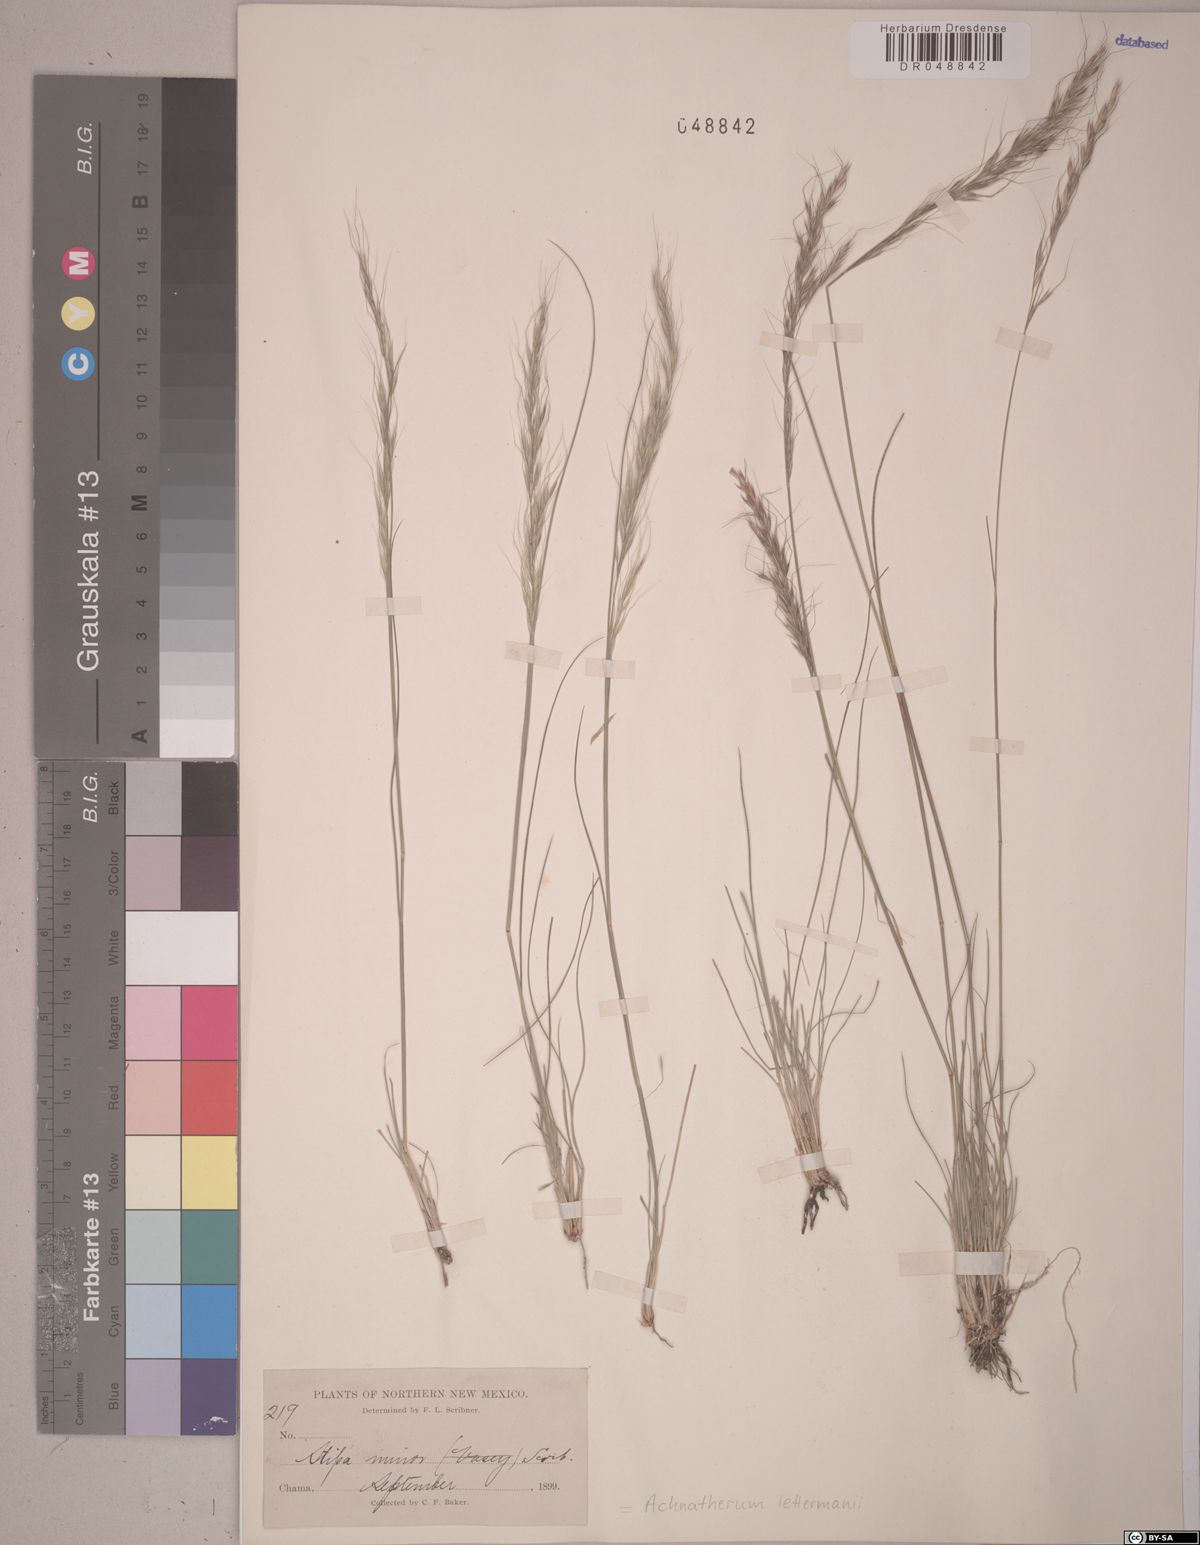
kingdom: Plantae
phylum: Tracheophyta
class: Liliopsida
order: Poales
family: Poaceae
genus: Eriocoma
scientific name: Eriocoma lettermanii
